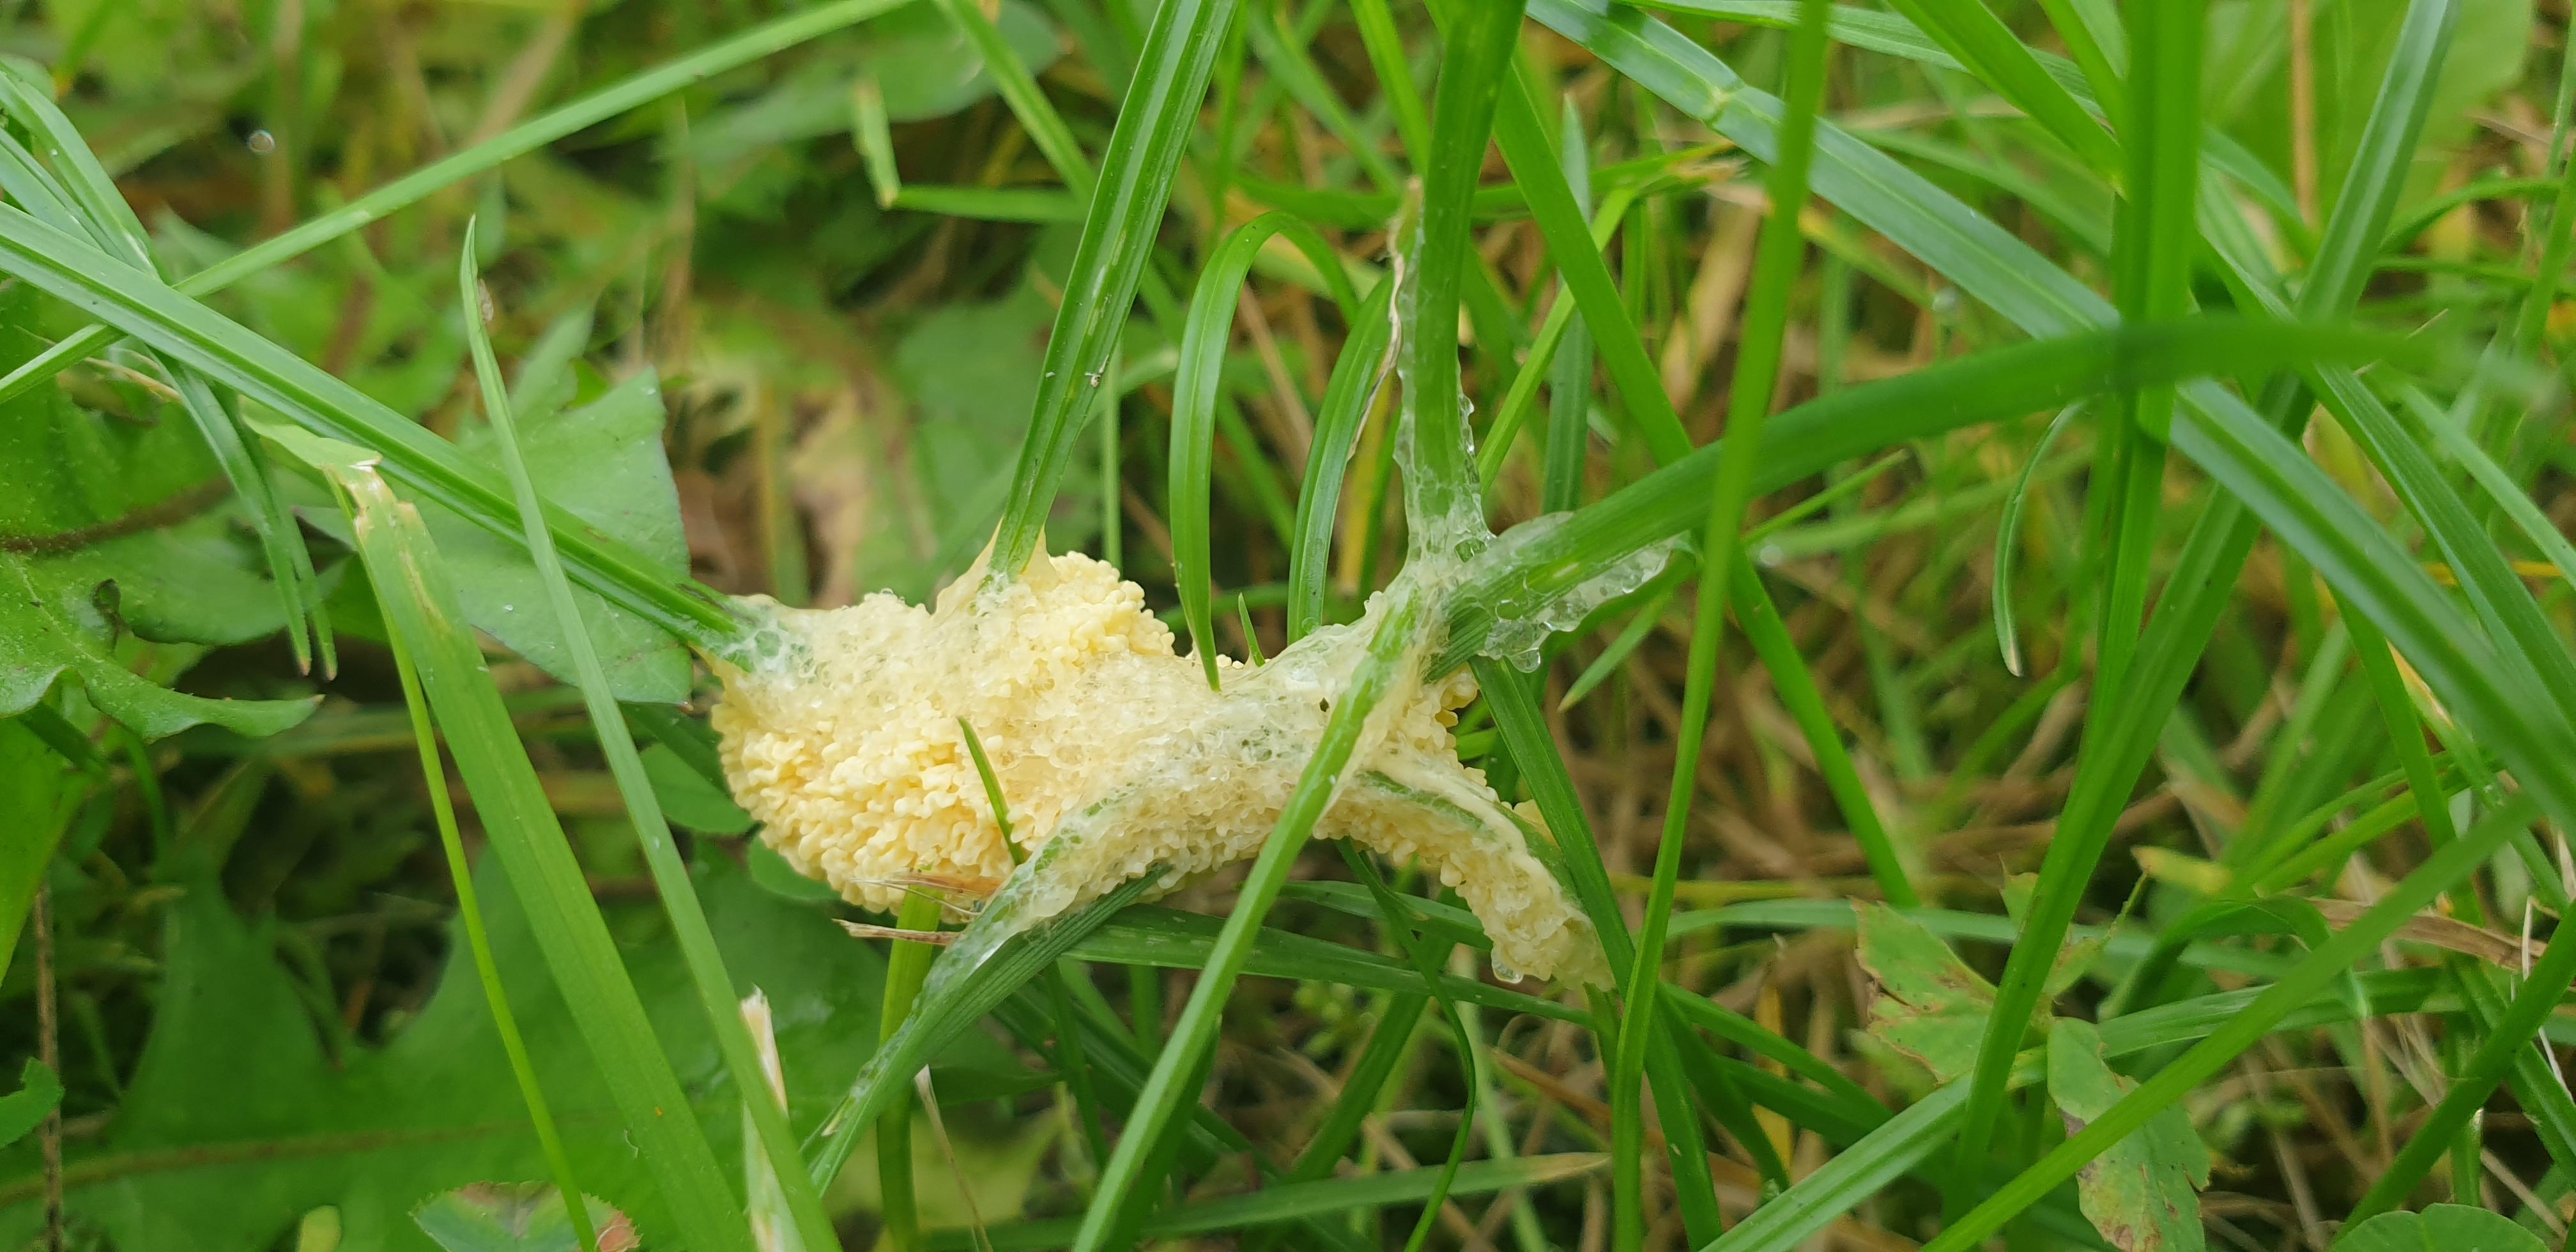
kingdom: Protozoa
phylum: Mycetozoa
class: Myxomycetes
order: Physarales
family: Physaraceae
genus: Didymium
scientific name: Didymium
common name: urteskum
